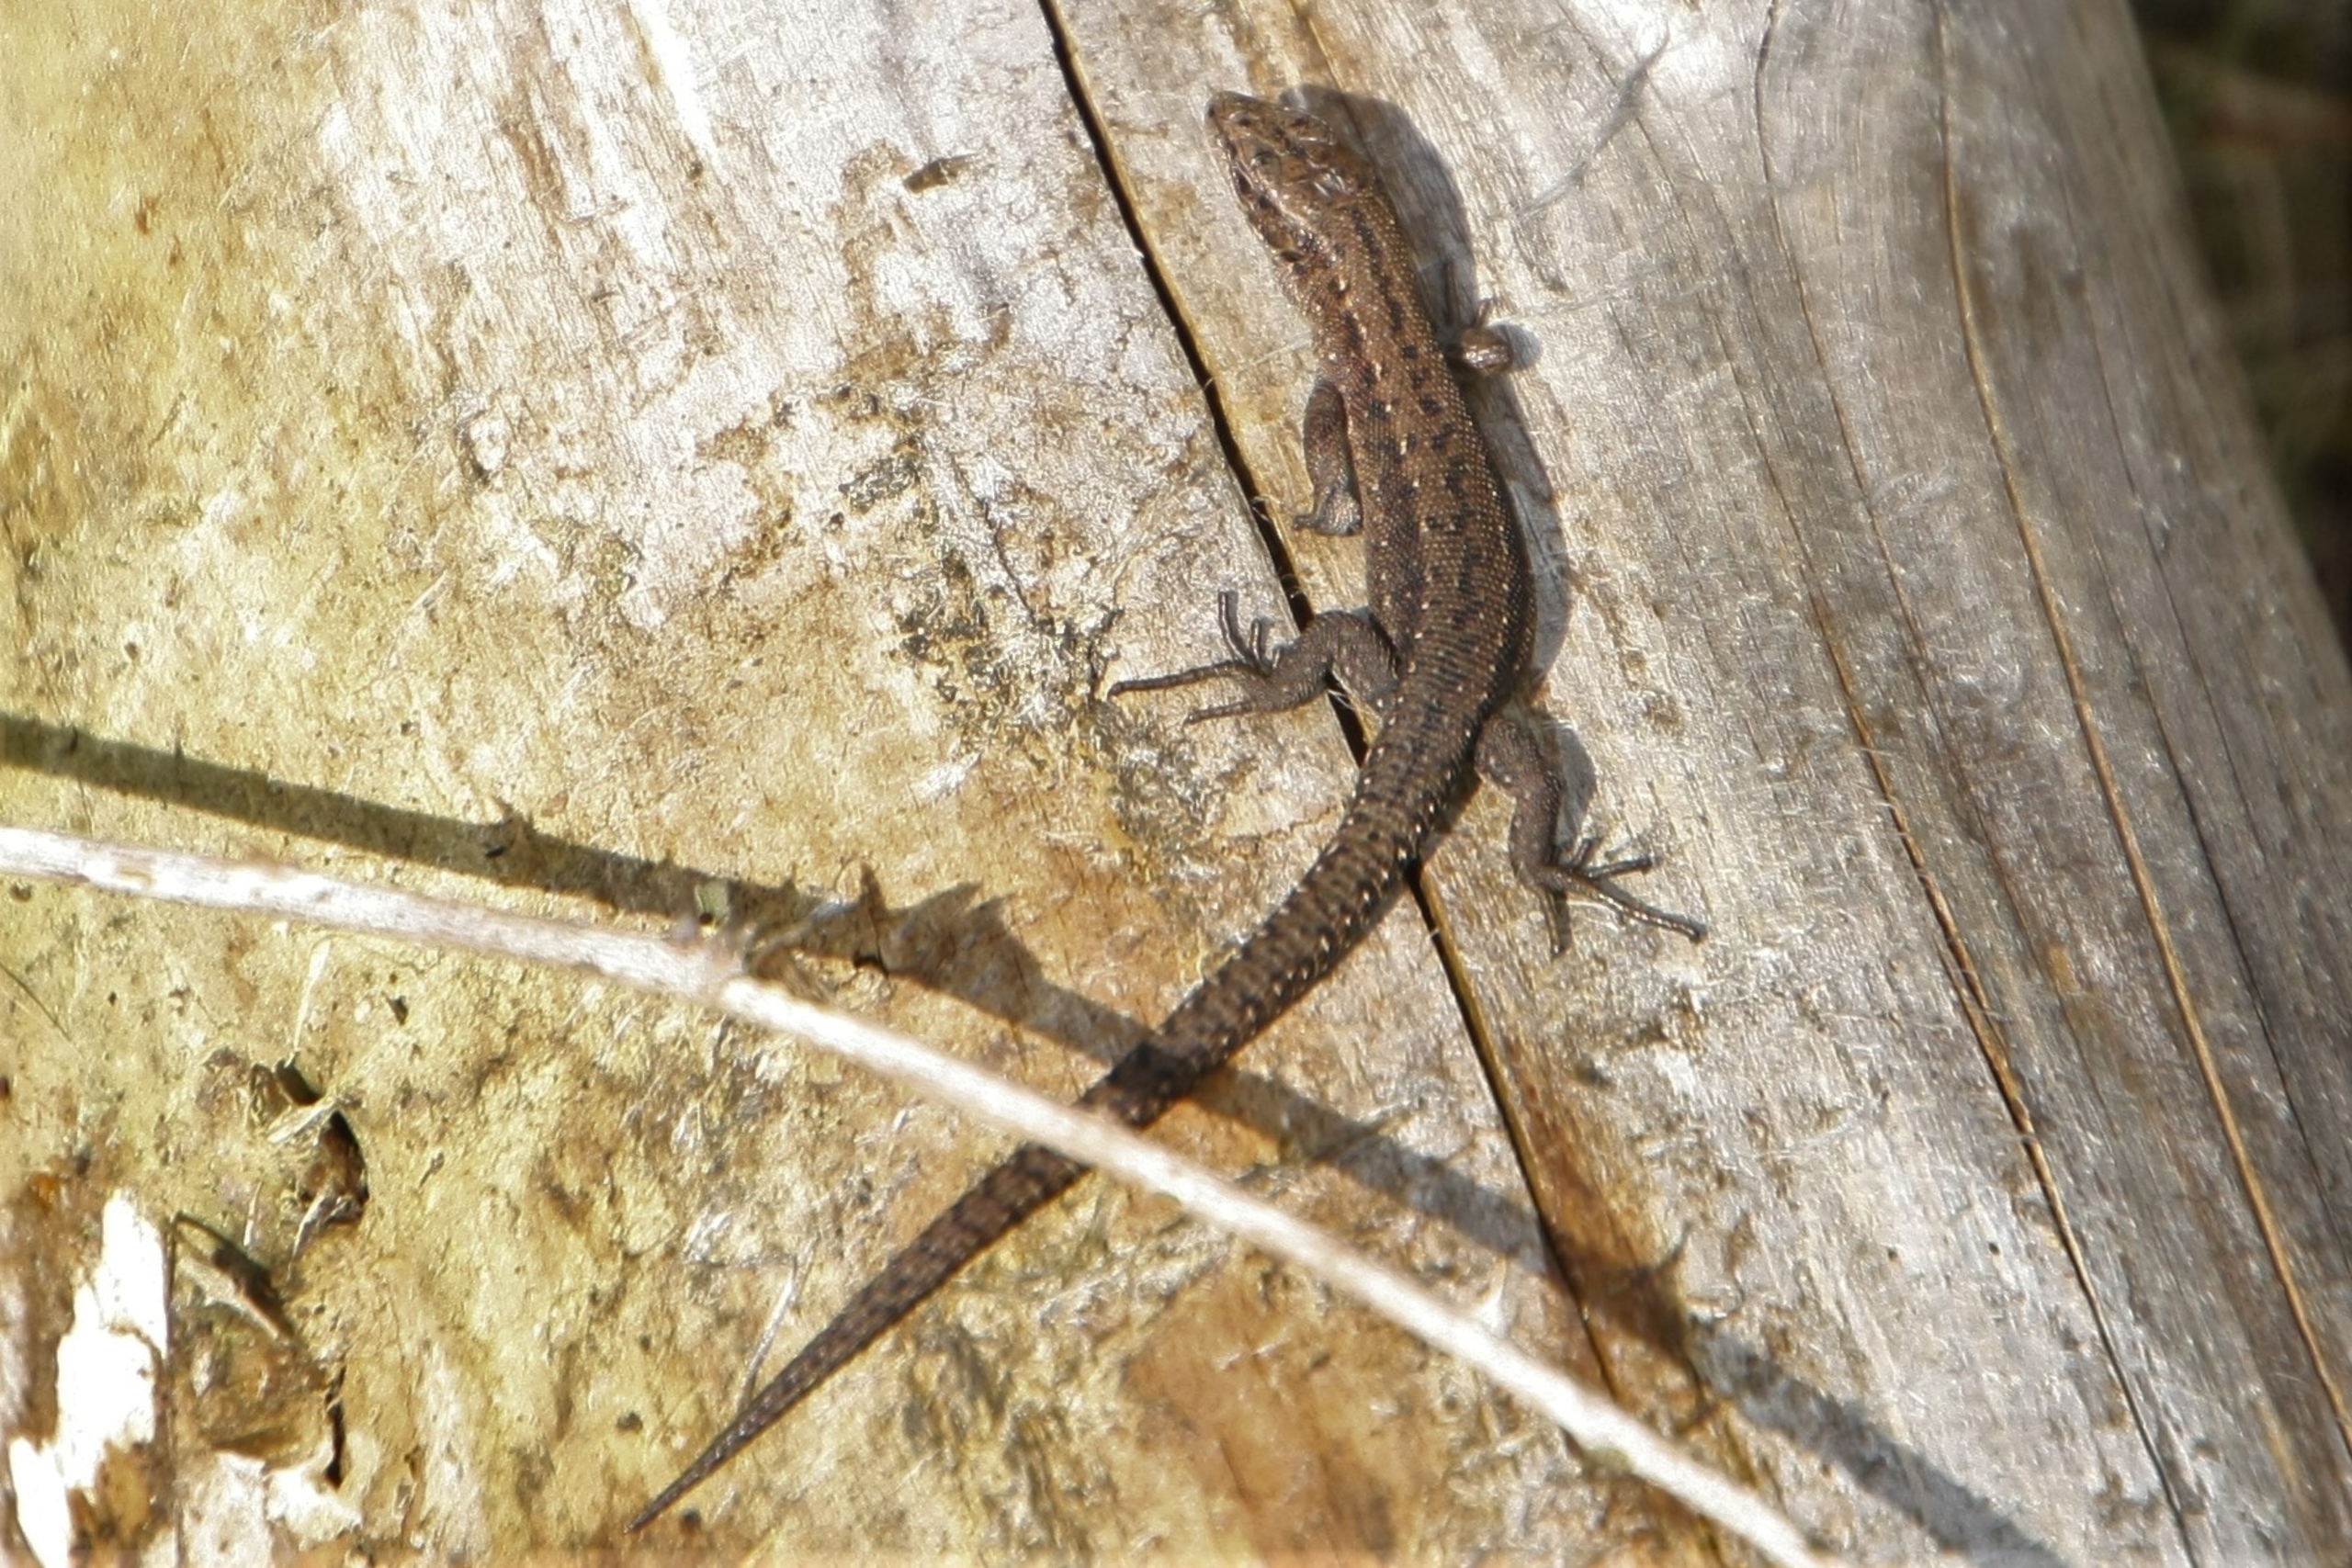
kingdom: Animalia
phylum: Chordata
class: Squamata
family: Lacertidae
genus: Zootoca
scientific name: Zootoca vivipara
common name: Skovfirben
